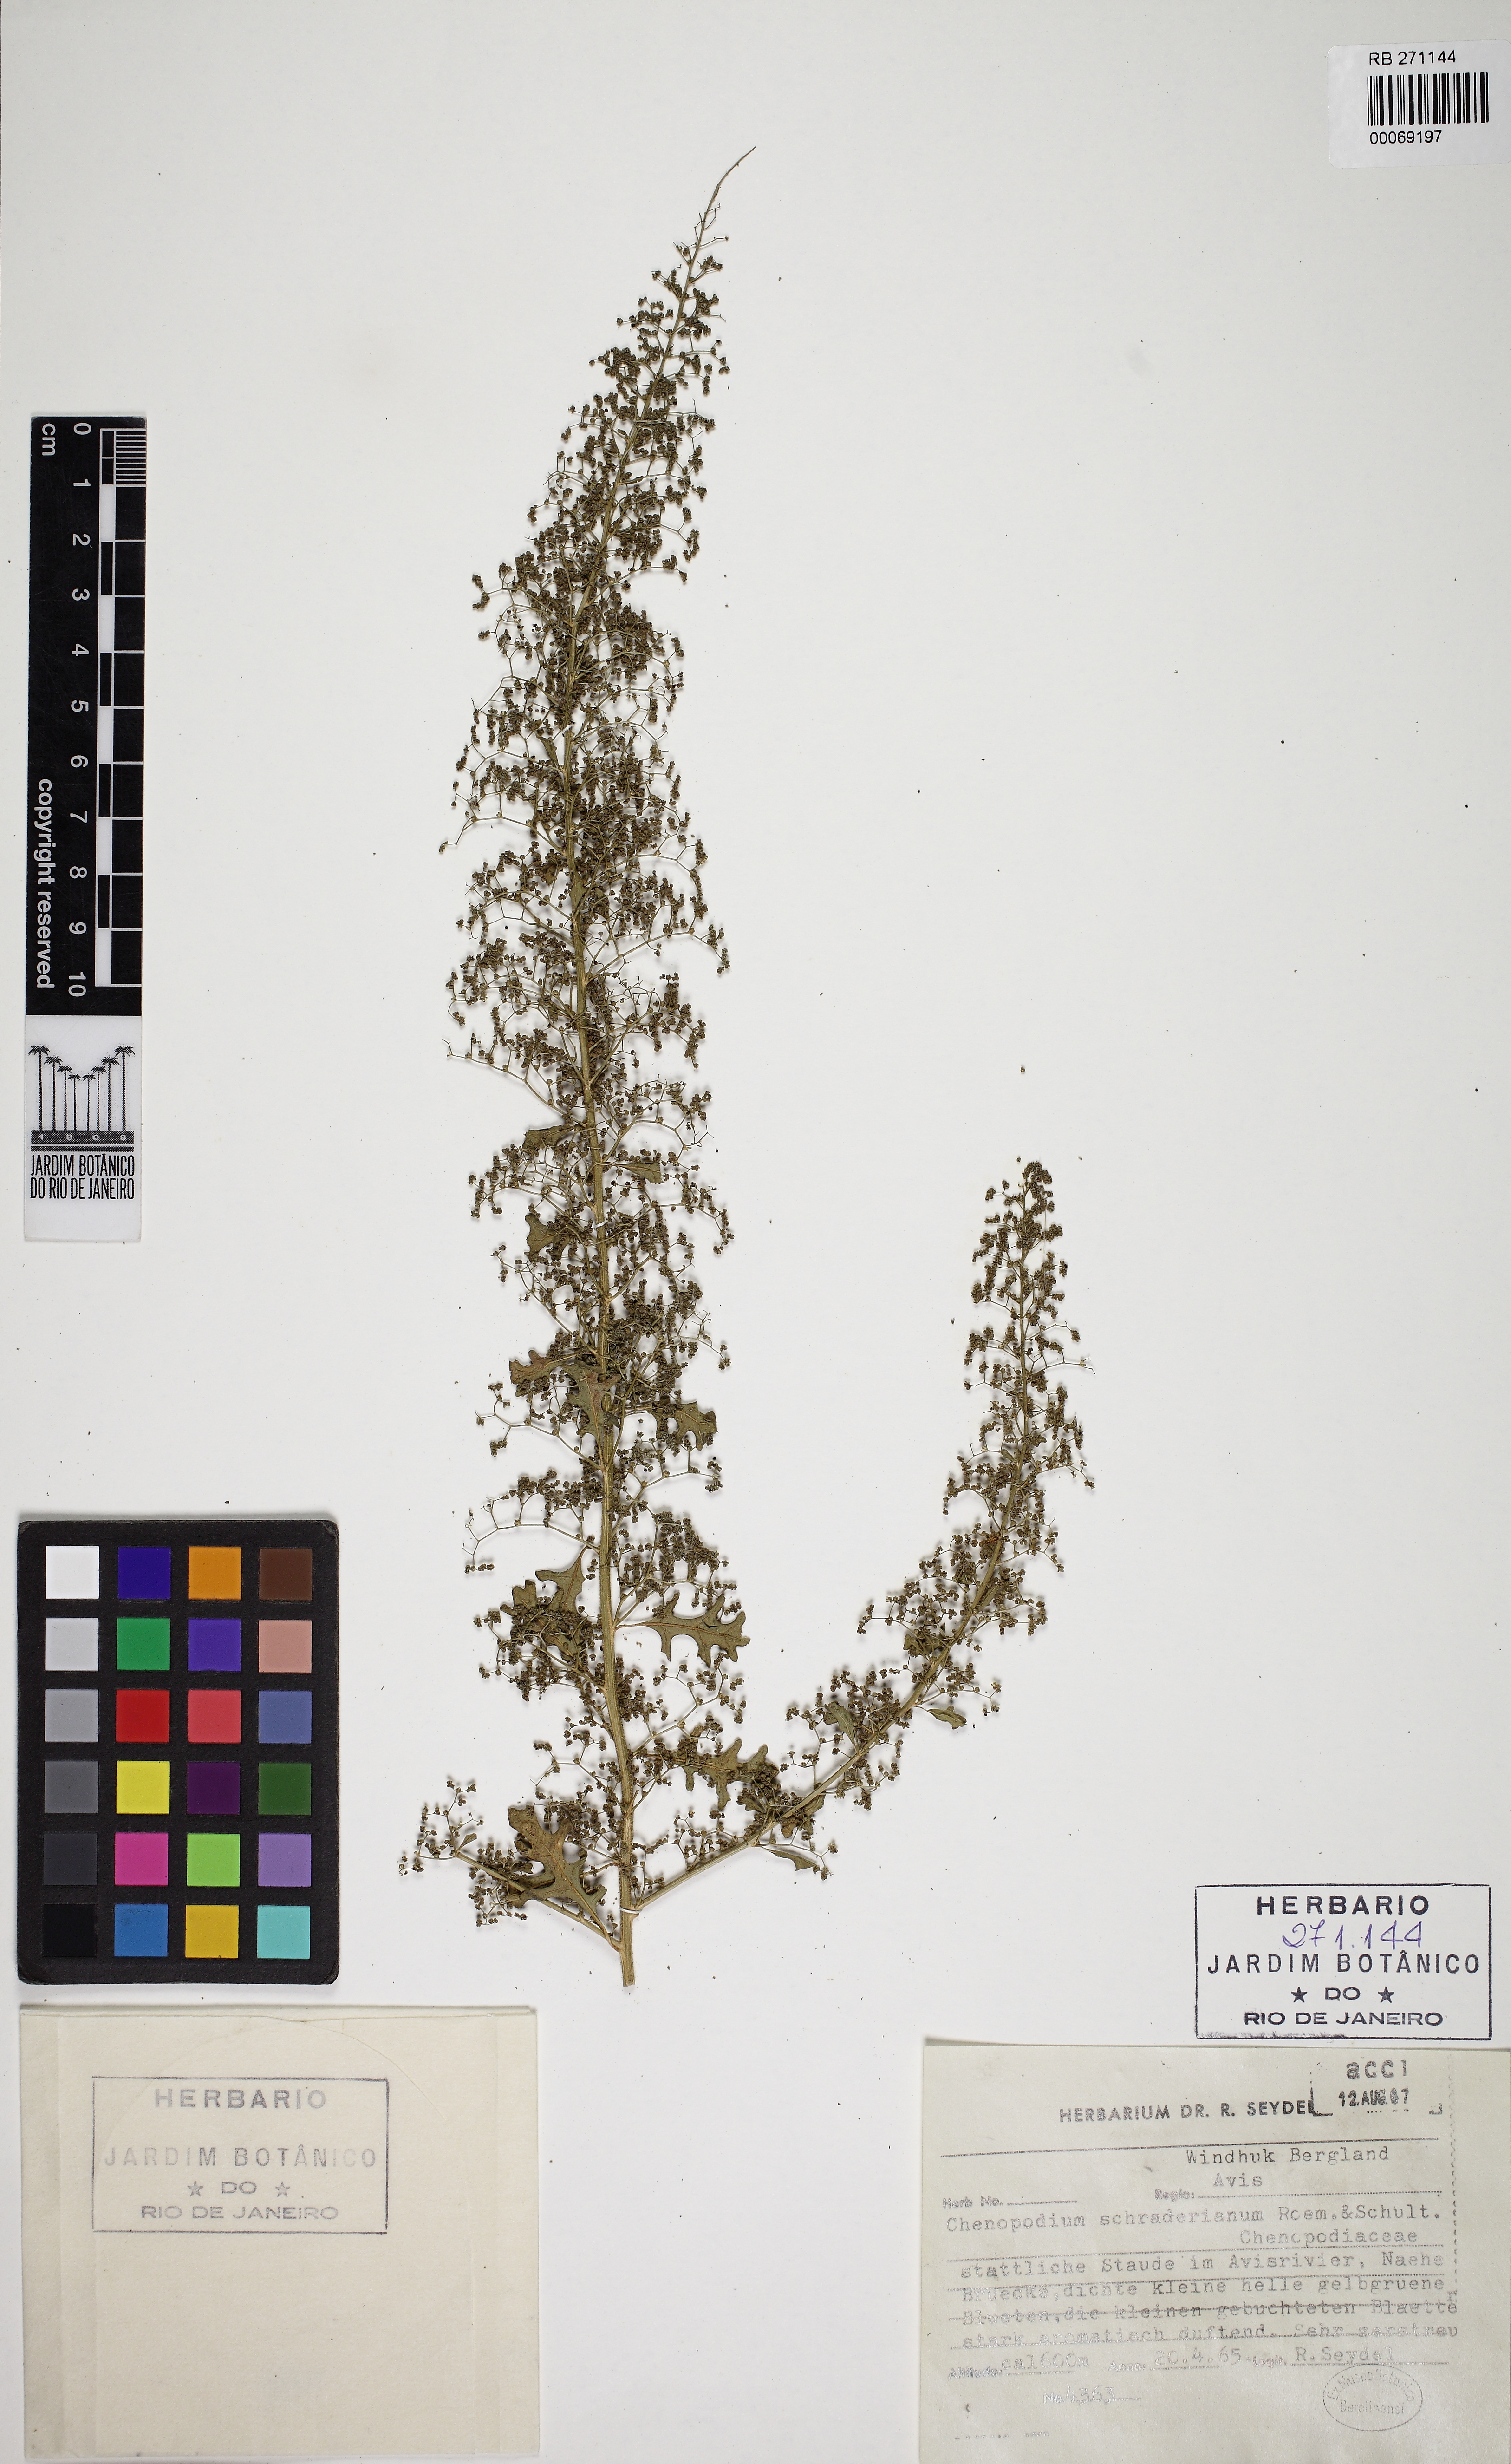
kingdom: Plantae
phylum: Tracheophyta
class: Magnoliopsida
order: Caryophyllales
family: Amaranthaceae
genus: Dysphania
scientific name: Dysphania schraderiana
